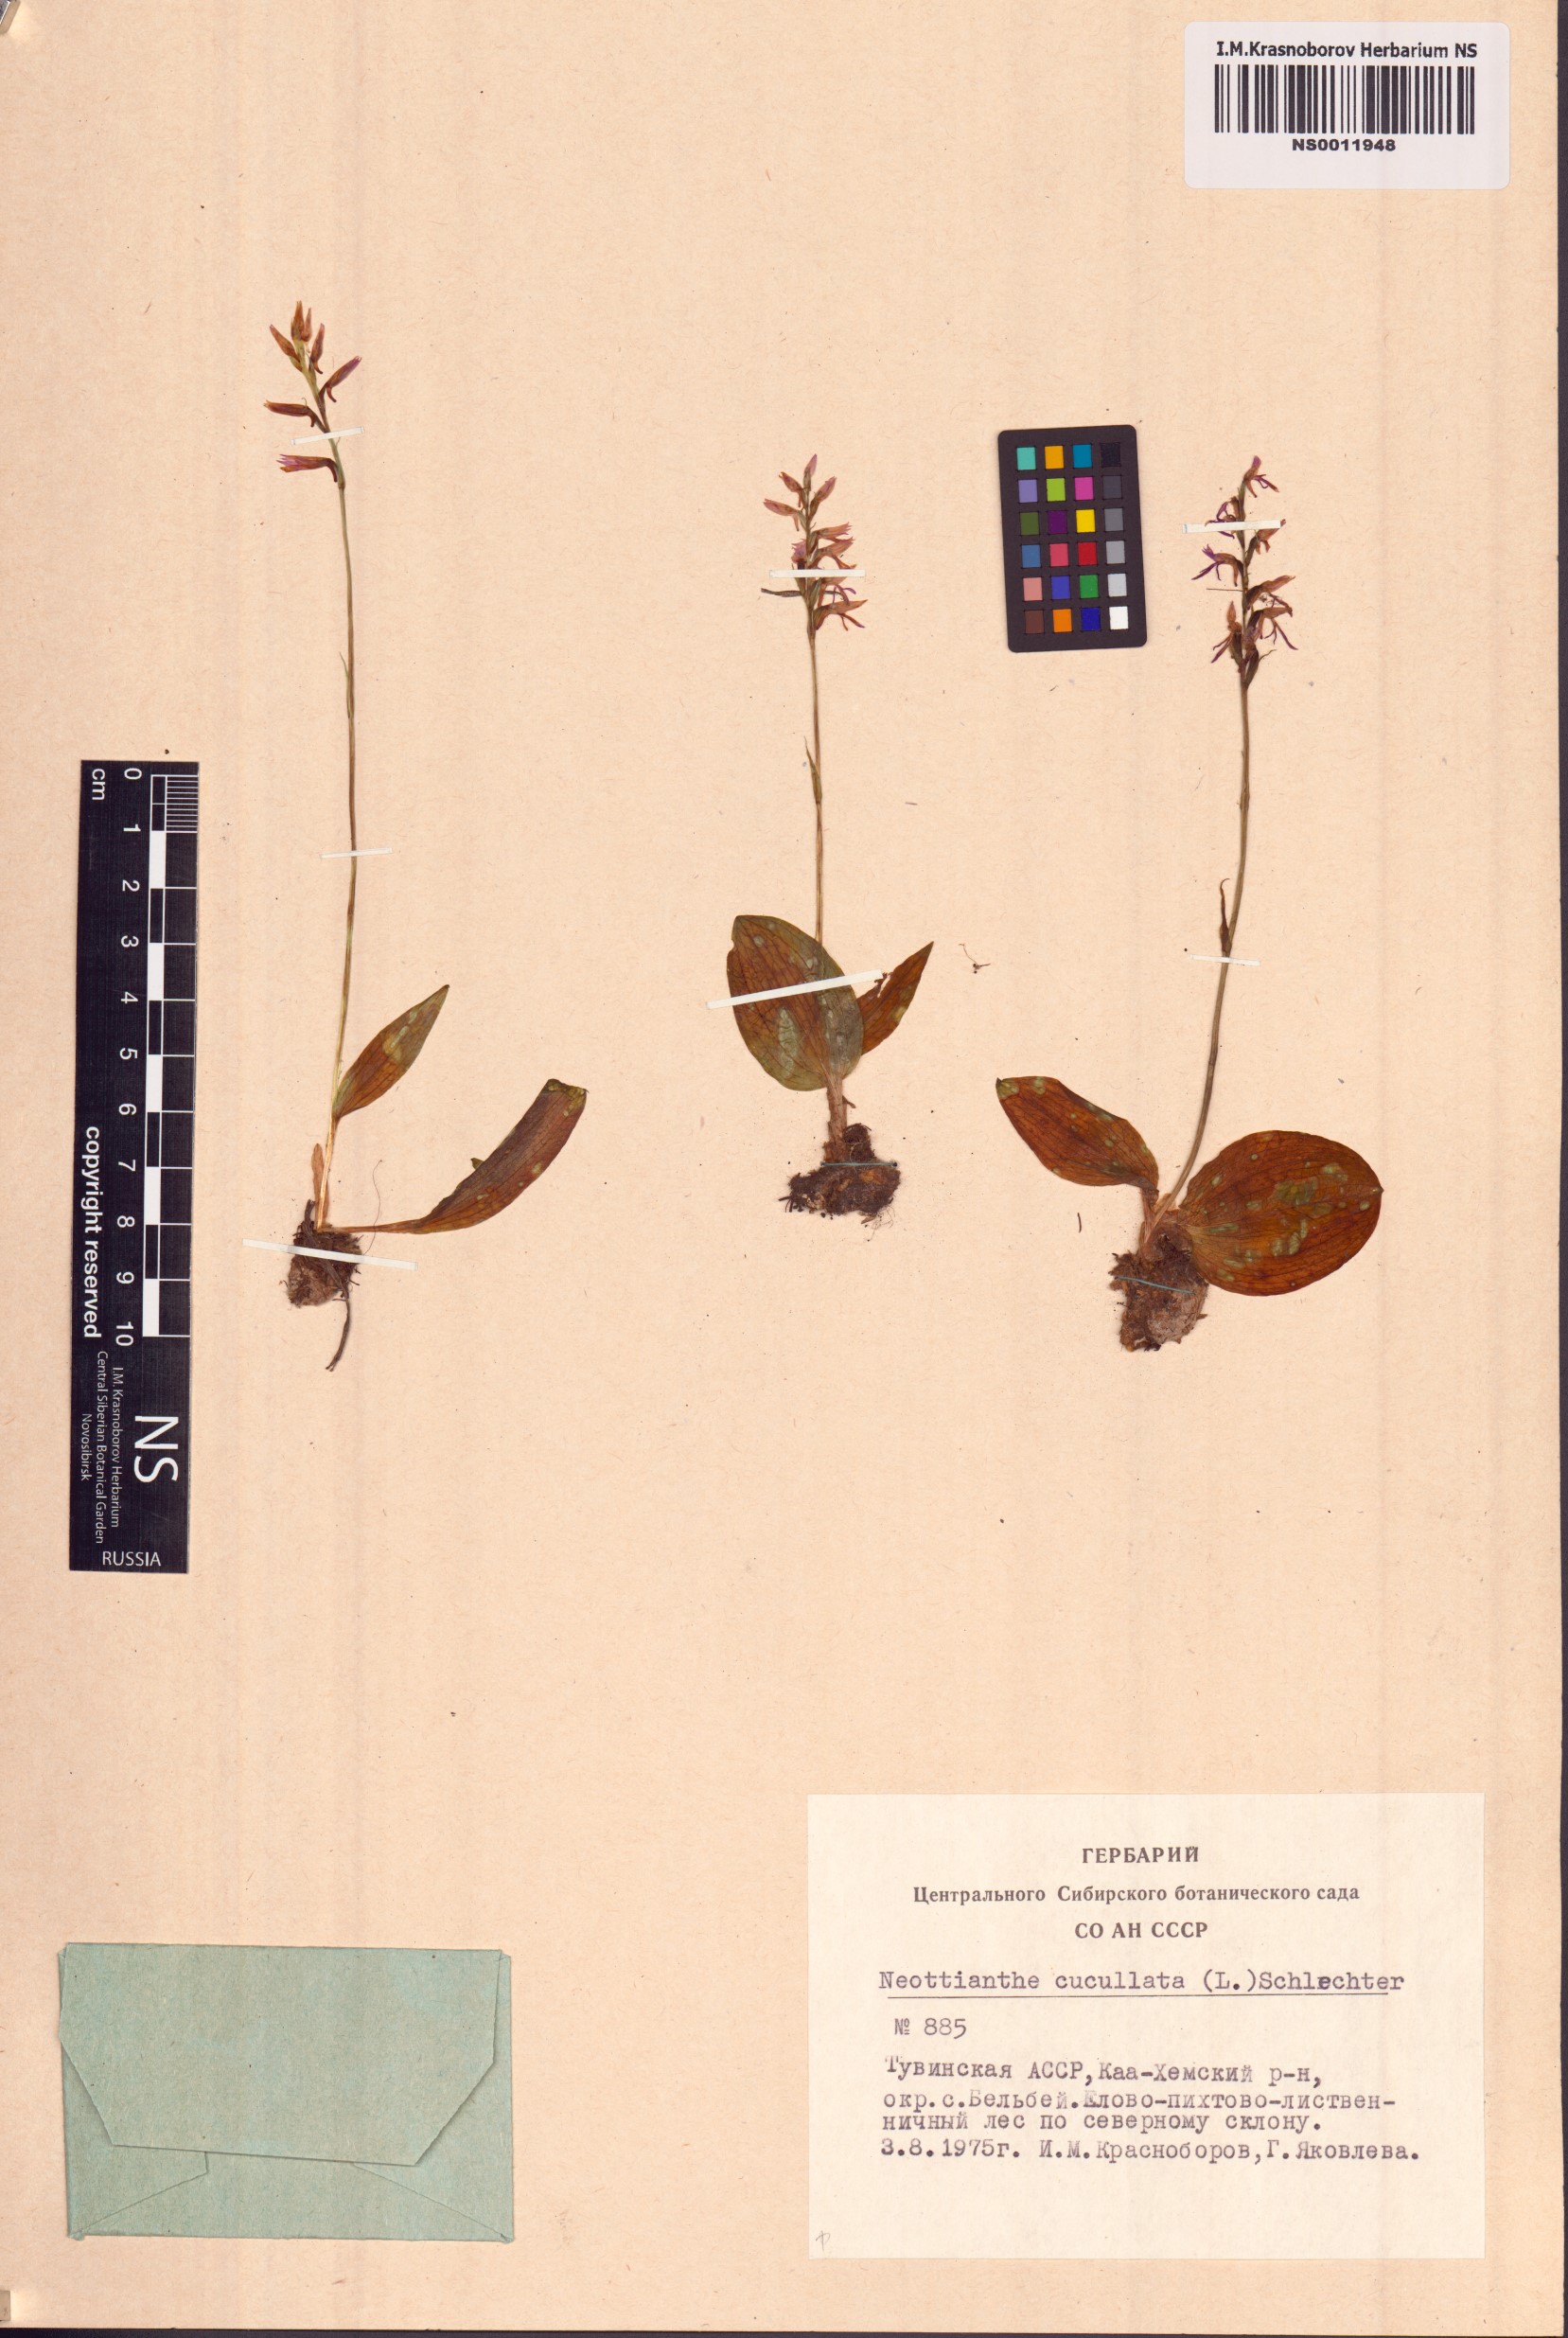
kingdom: Plantae
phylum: Tracheophyta
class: Liliopsida
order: Asparagales
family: Orchidaceae
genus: Hemipilia
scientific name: Hemipilia cucullata
